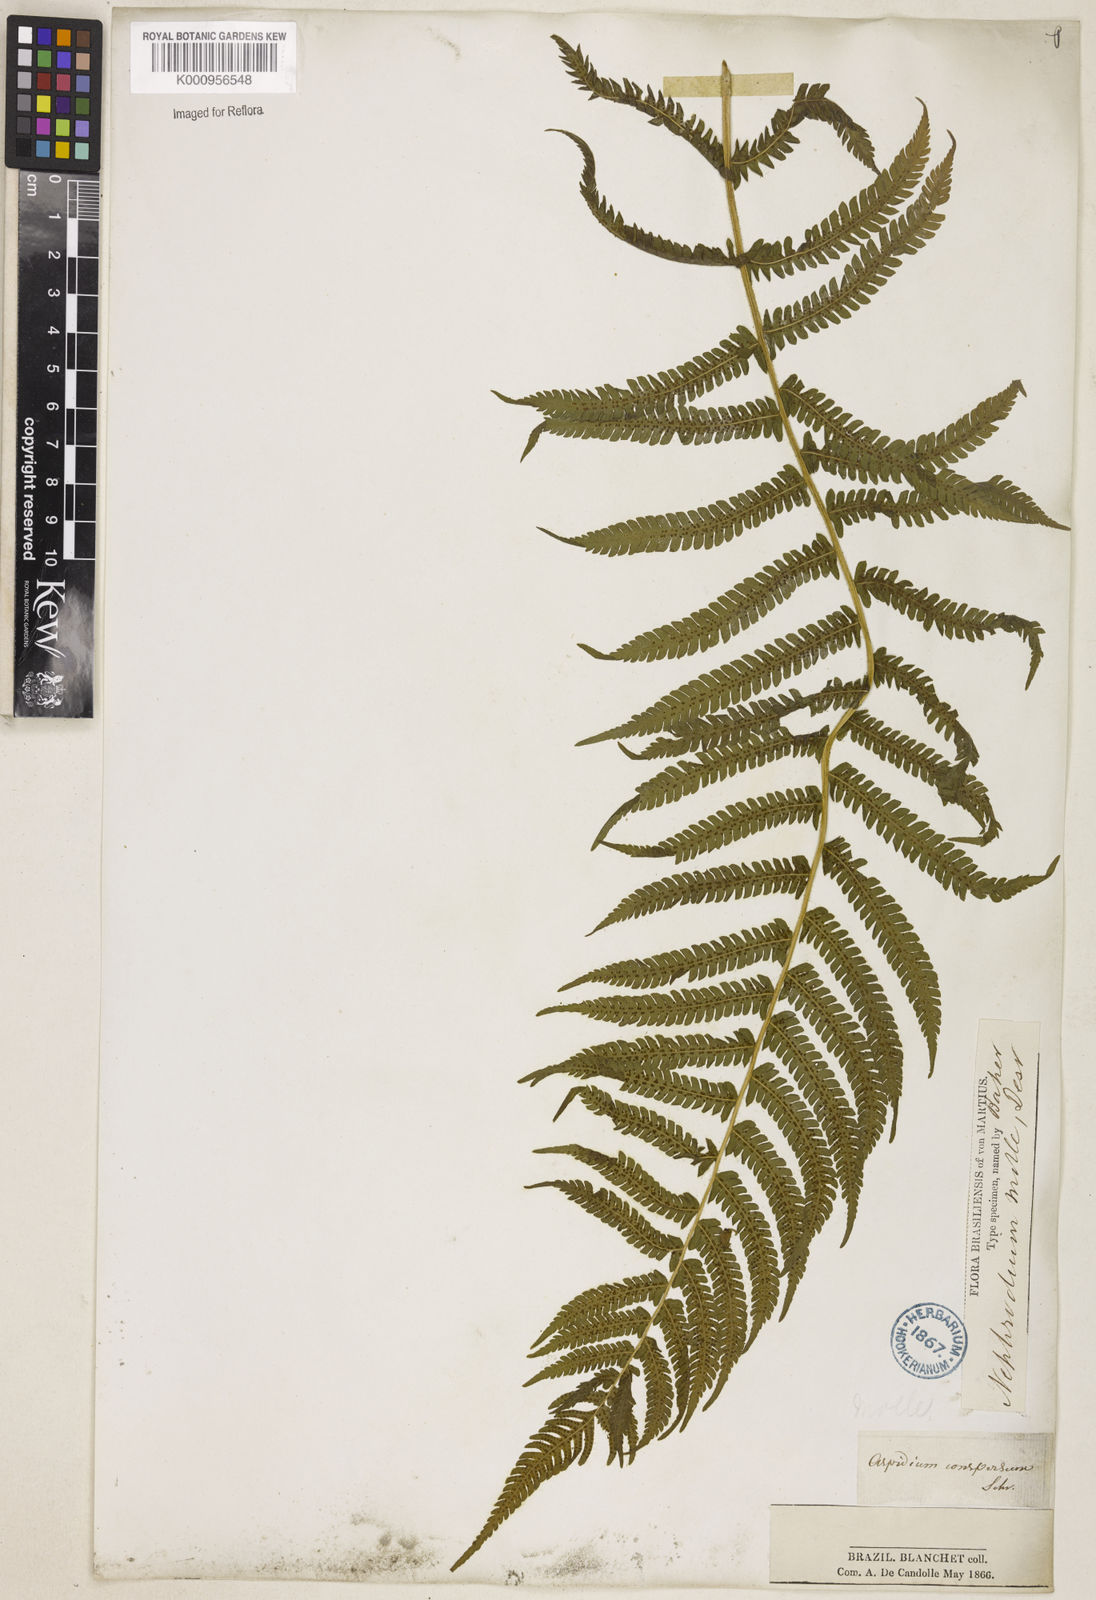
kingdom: Plantae
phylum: Tracheophyta
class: Polypodiopsida
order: Polypodiales
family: Thelypteridaceae
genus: Christella
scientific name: Christella hispidula
